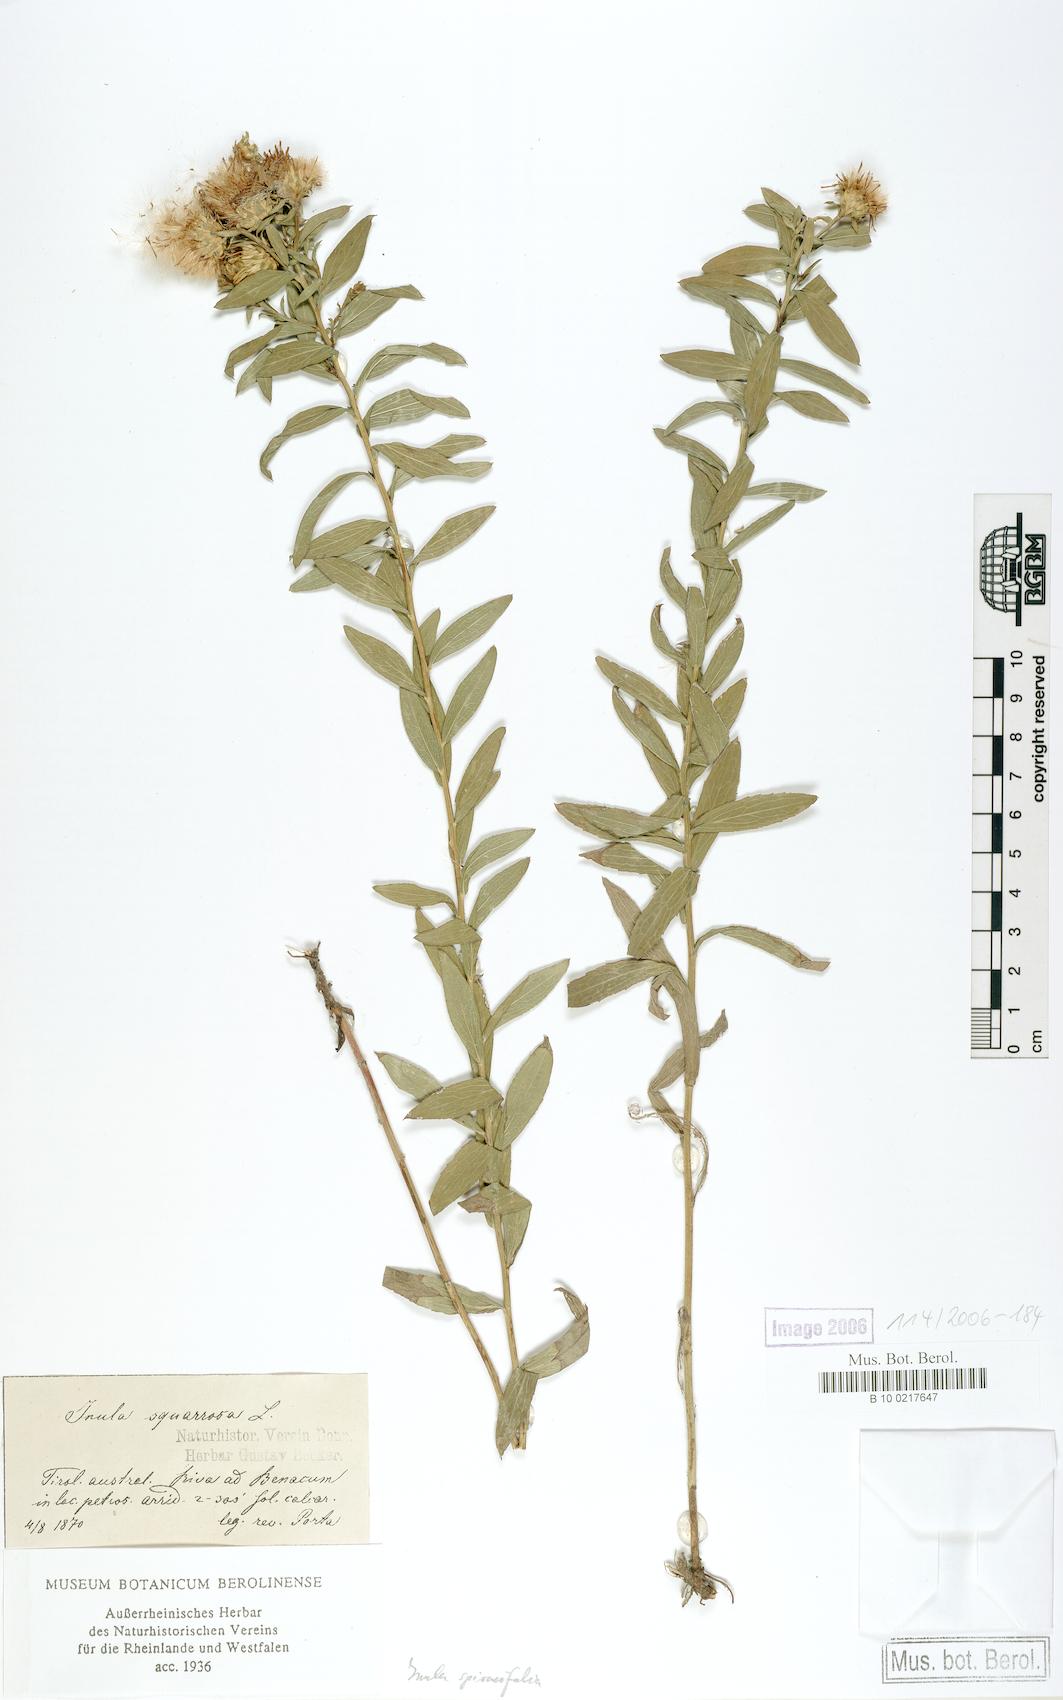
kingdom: Plantae
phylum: Tracheophyta
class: Magnoliopsida
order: Asterales
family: Asteraceae
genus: Pentanema
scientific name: Pentanema spiraeifolium
